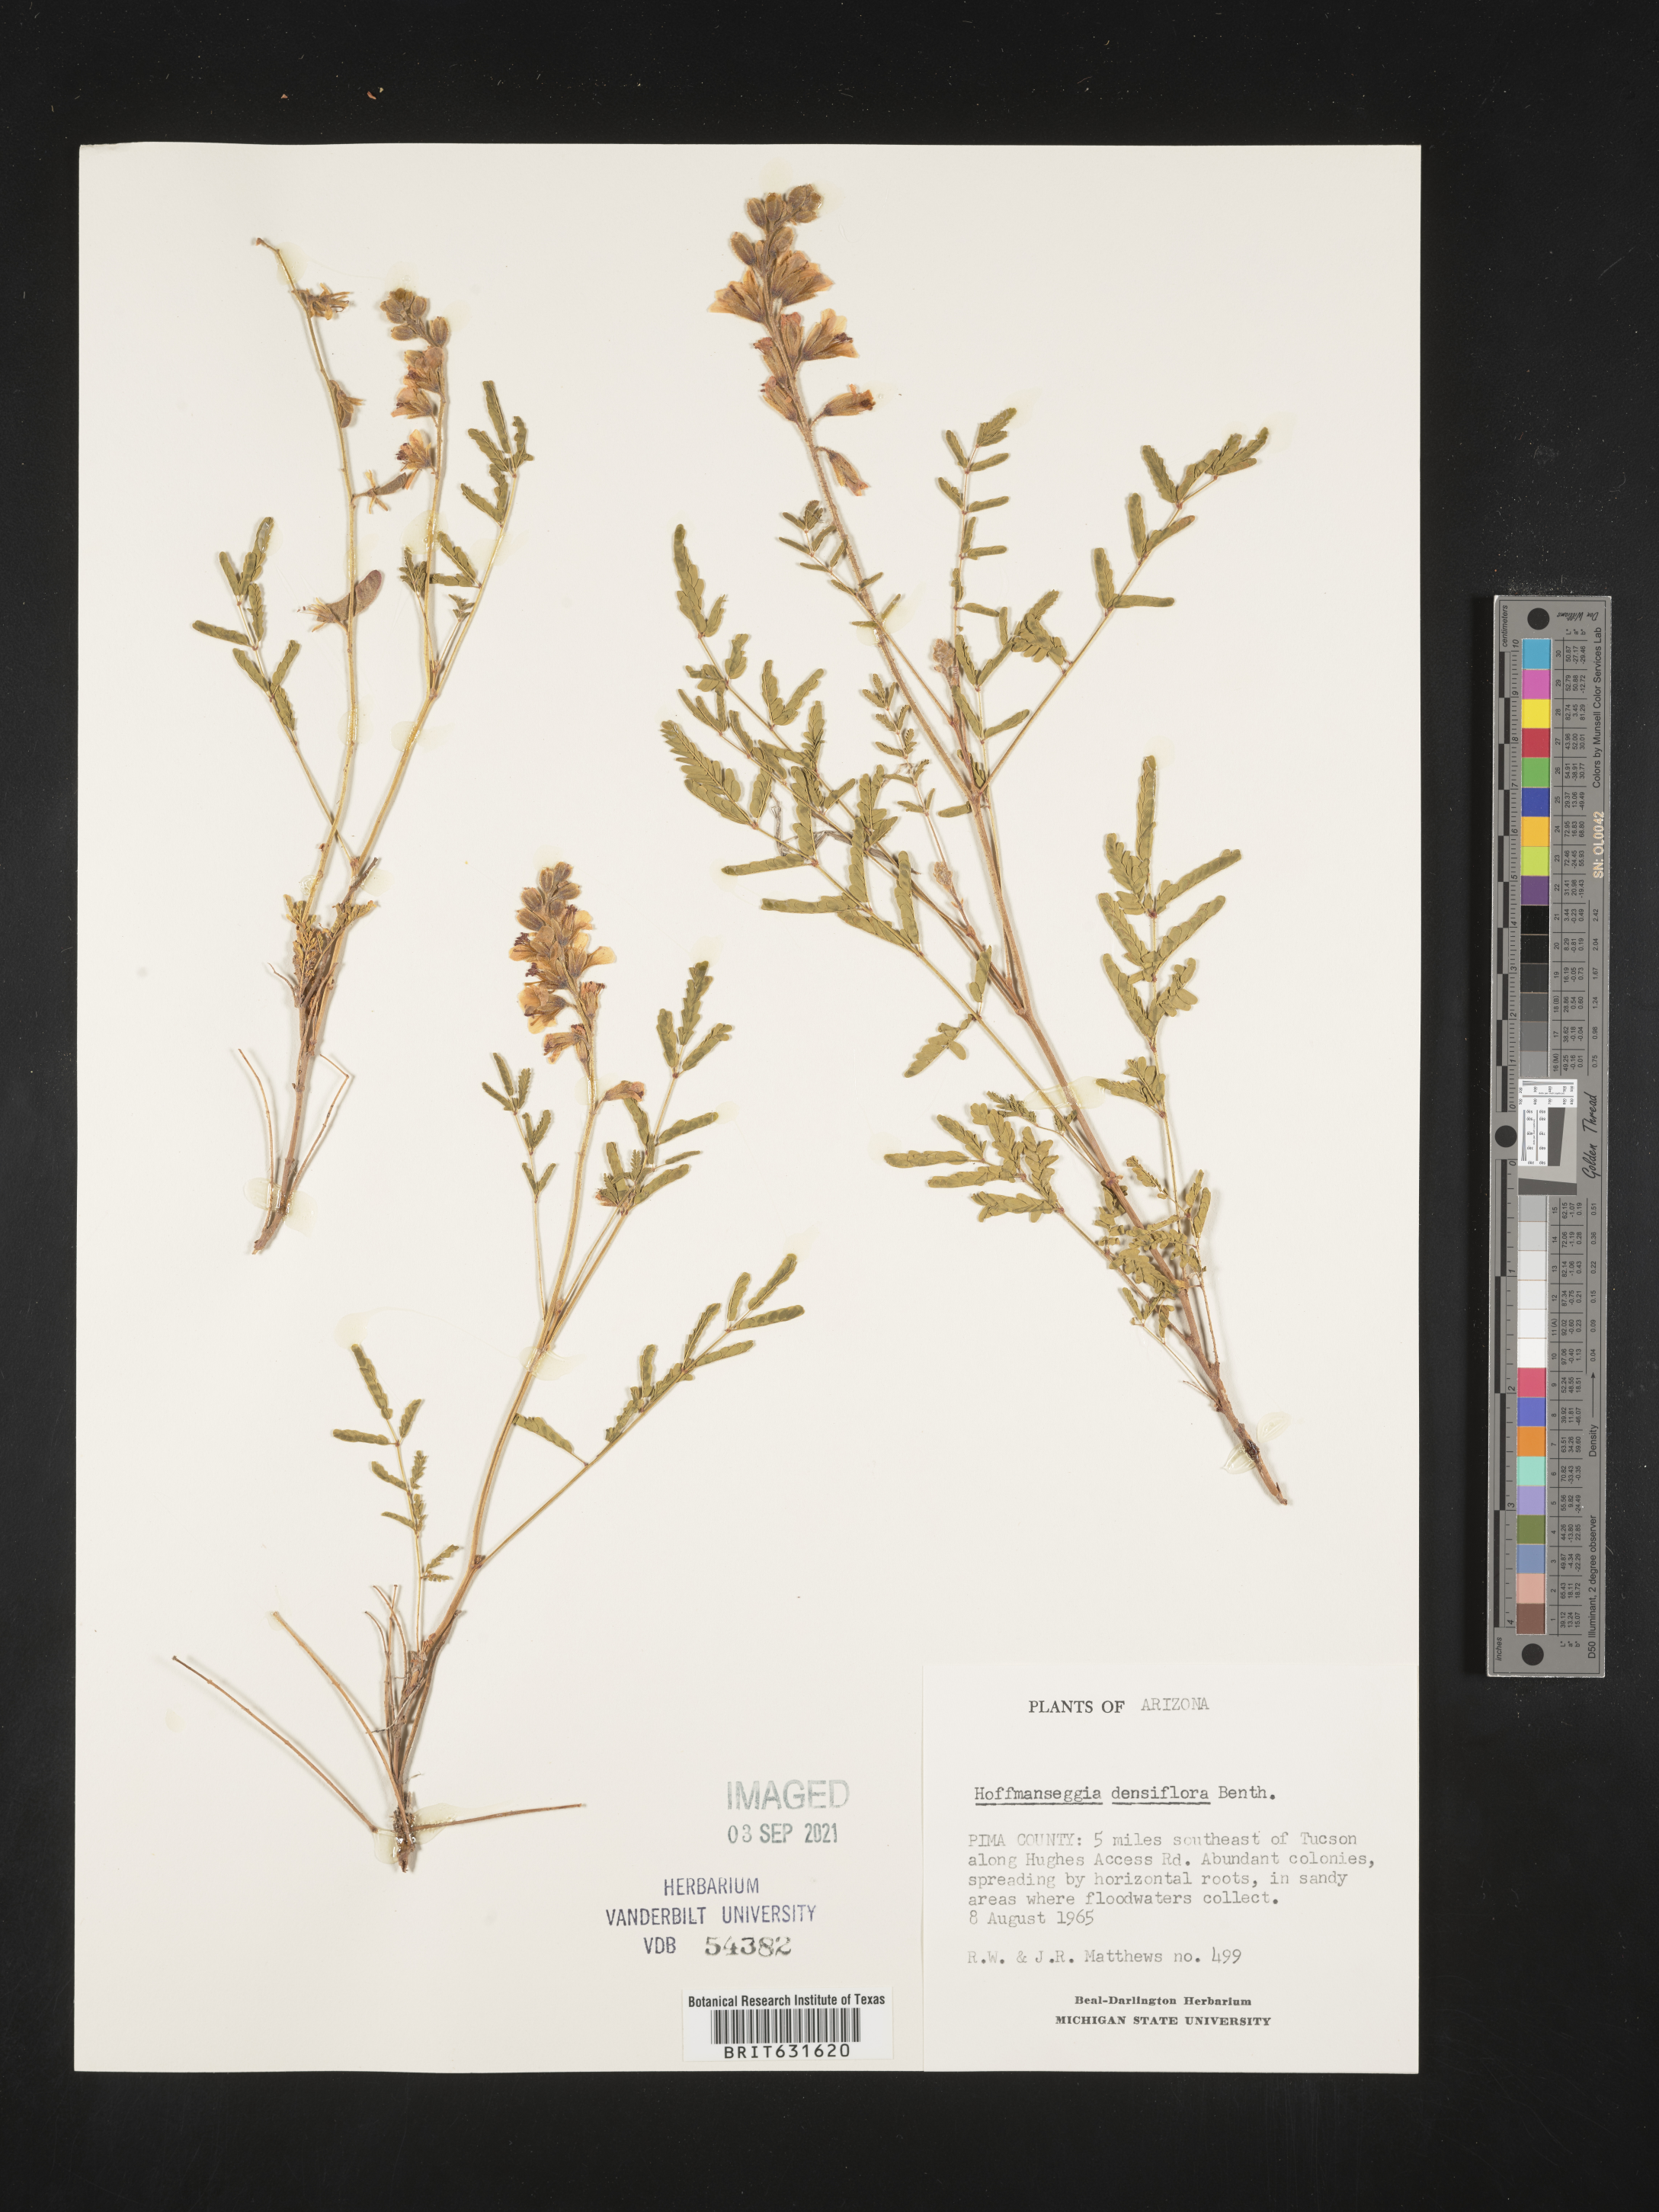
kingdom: Plantae
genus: Hoffmanseggia
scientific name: Hoffmanseggia
